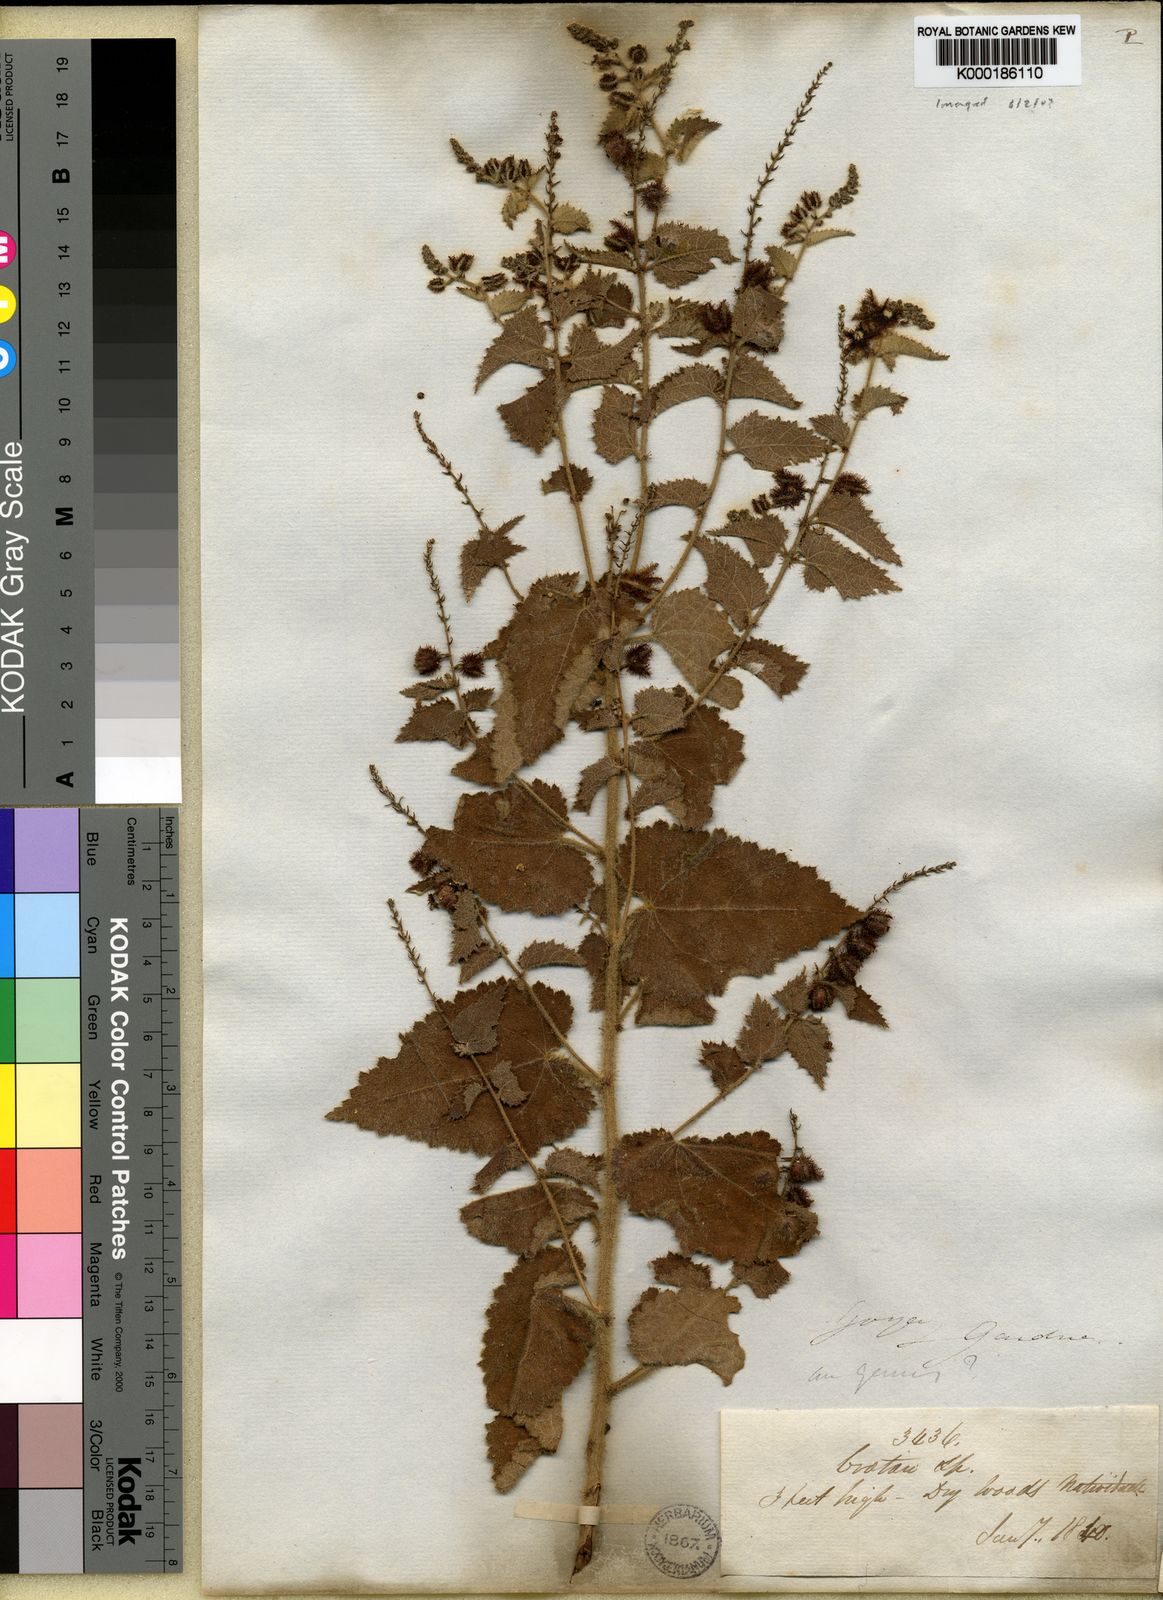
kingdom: Plantae
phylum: Tracheophyta
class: Magnoliopsida
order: Malpighiales
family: Euphorbiaceae
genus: Croton
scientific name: Croton
